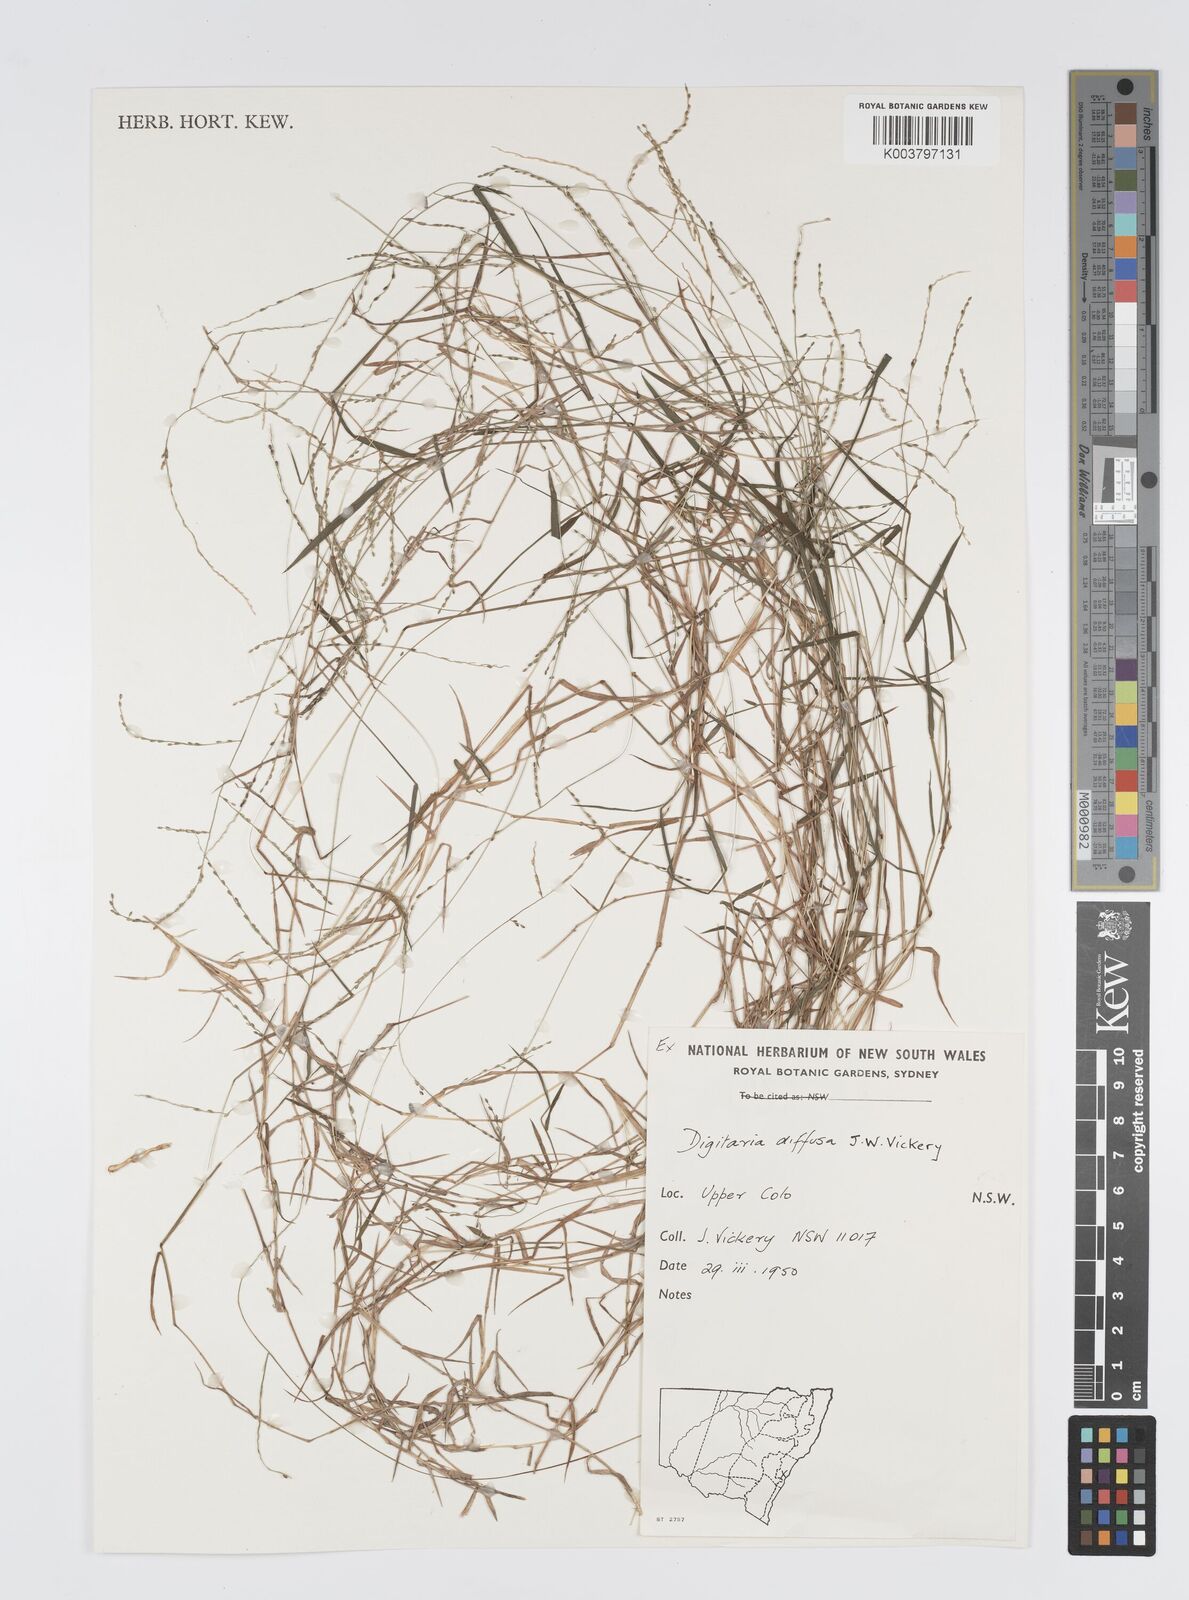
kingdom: Plantae
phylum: Tracheophyta
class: Liliopsida
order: Poales
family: Poaceae
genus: Digitaria
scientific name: Digitaria diffusa
